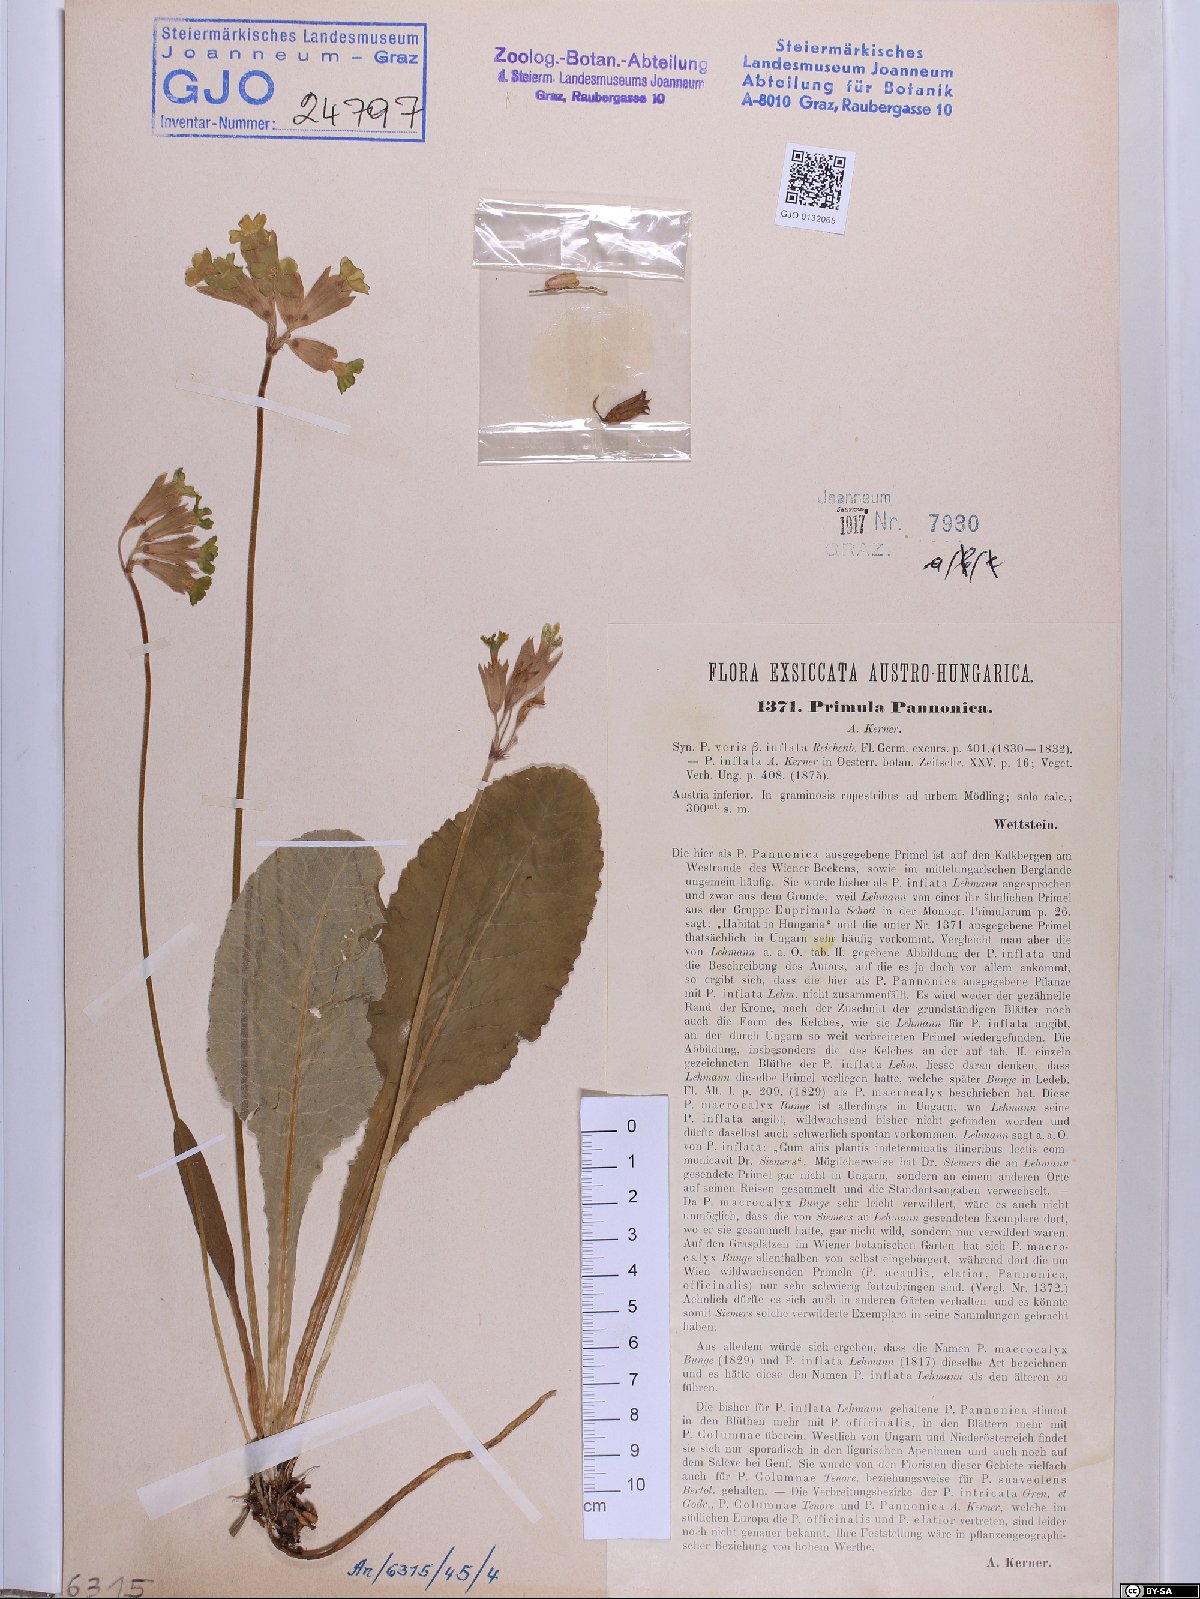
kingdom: Plantae
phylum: Tracheophyta
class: Magnoliopsida
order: Ericales
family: Primulaceae
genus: Primula
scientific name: Primula veris
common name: Cowslip
